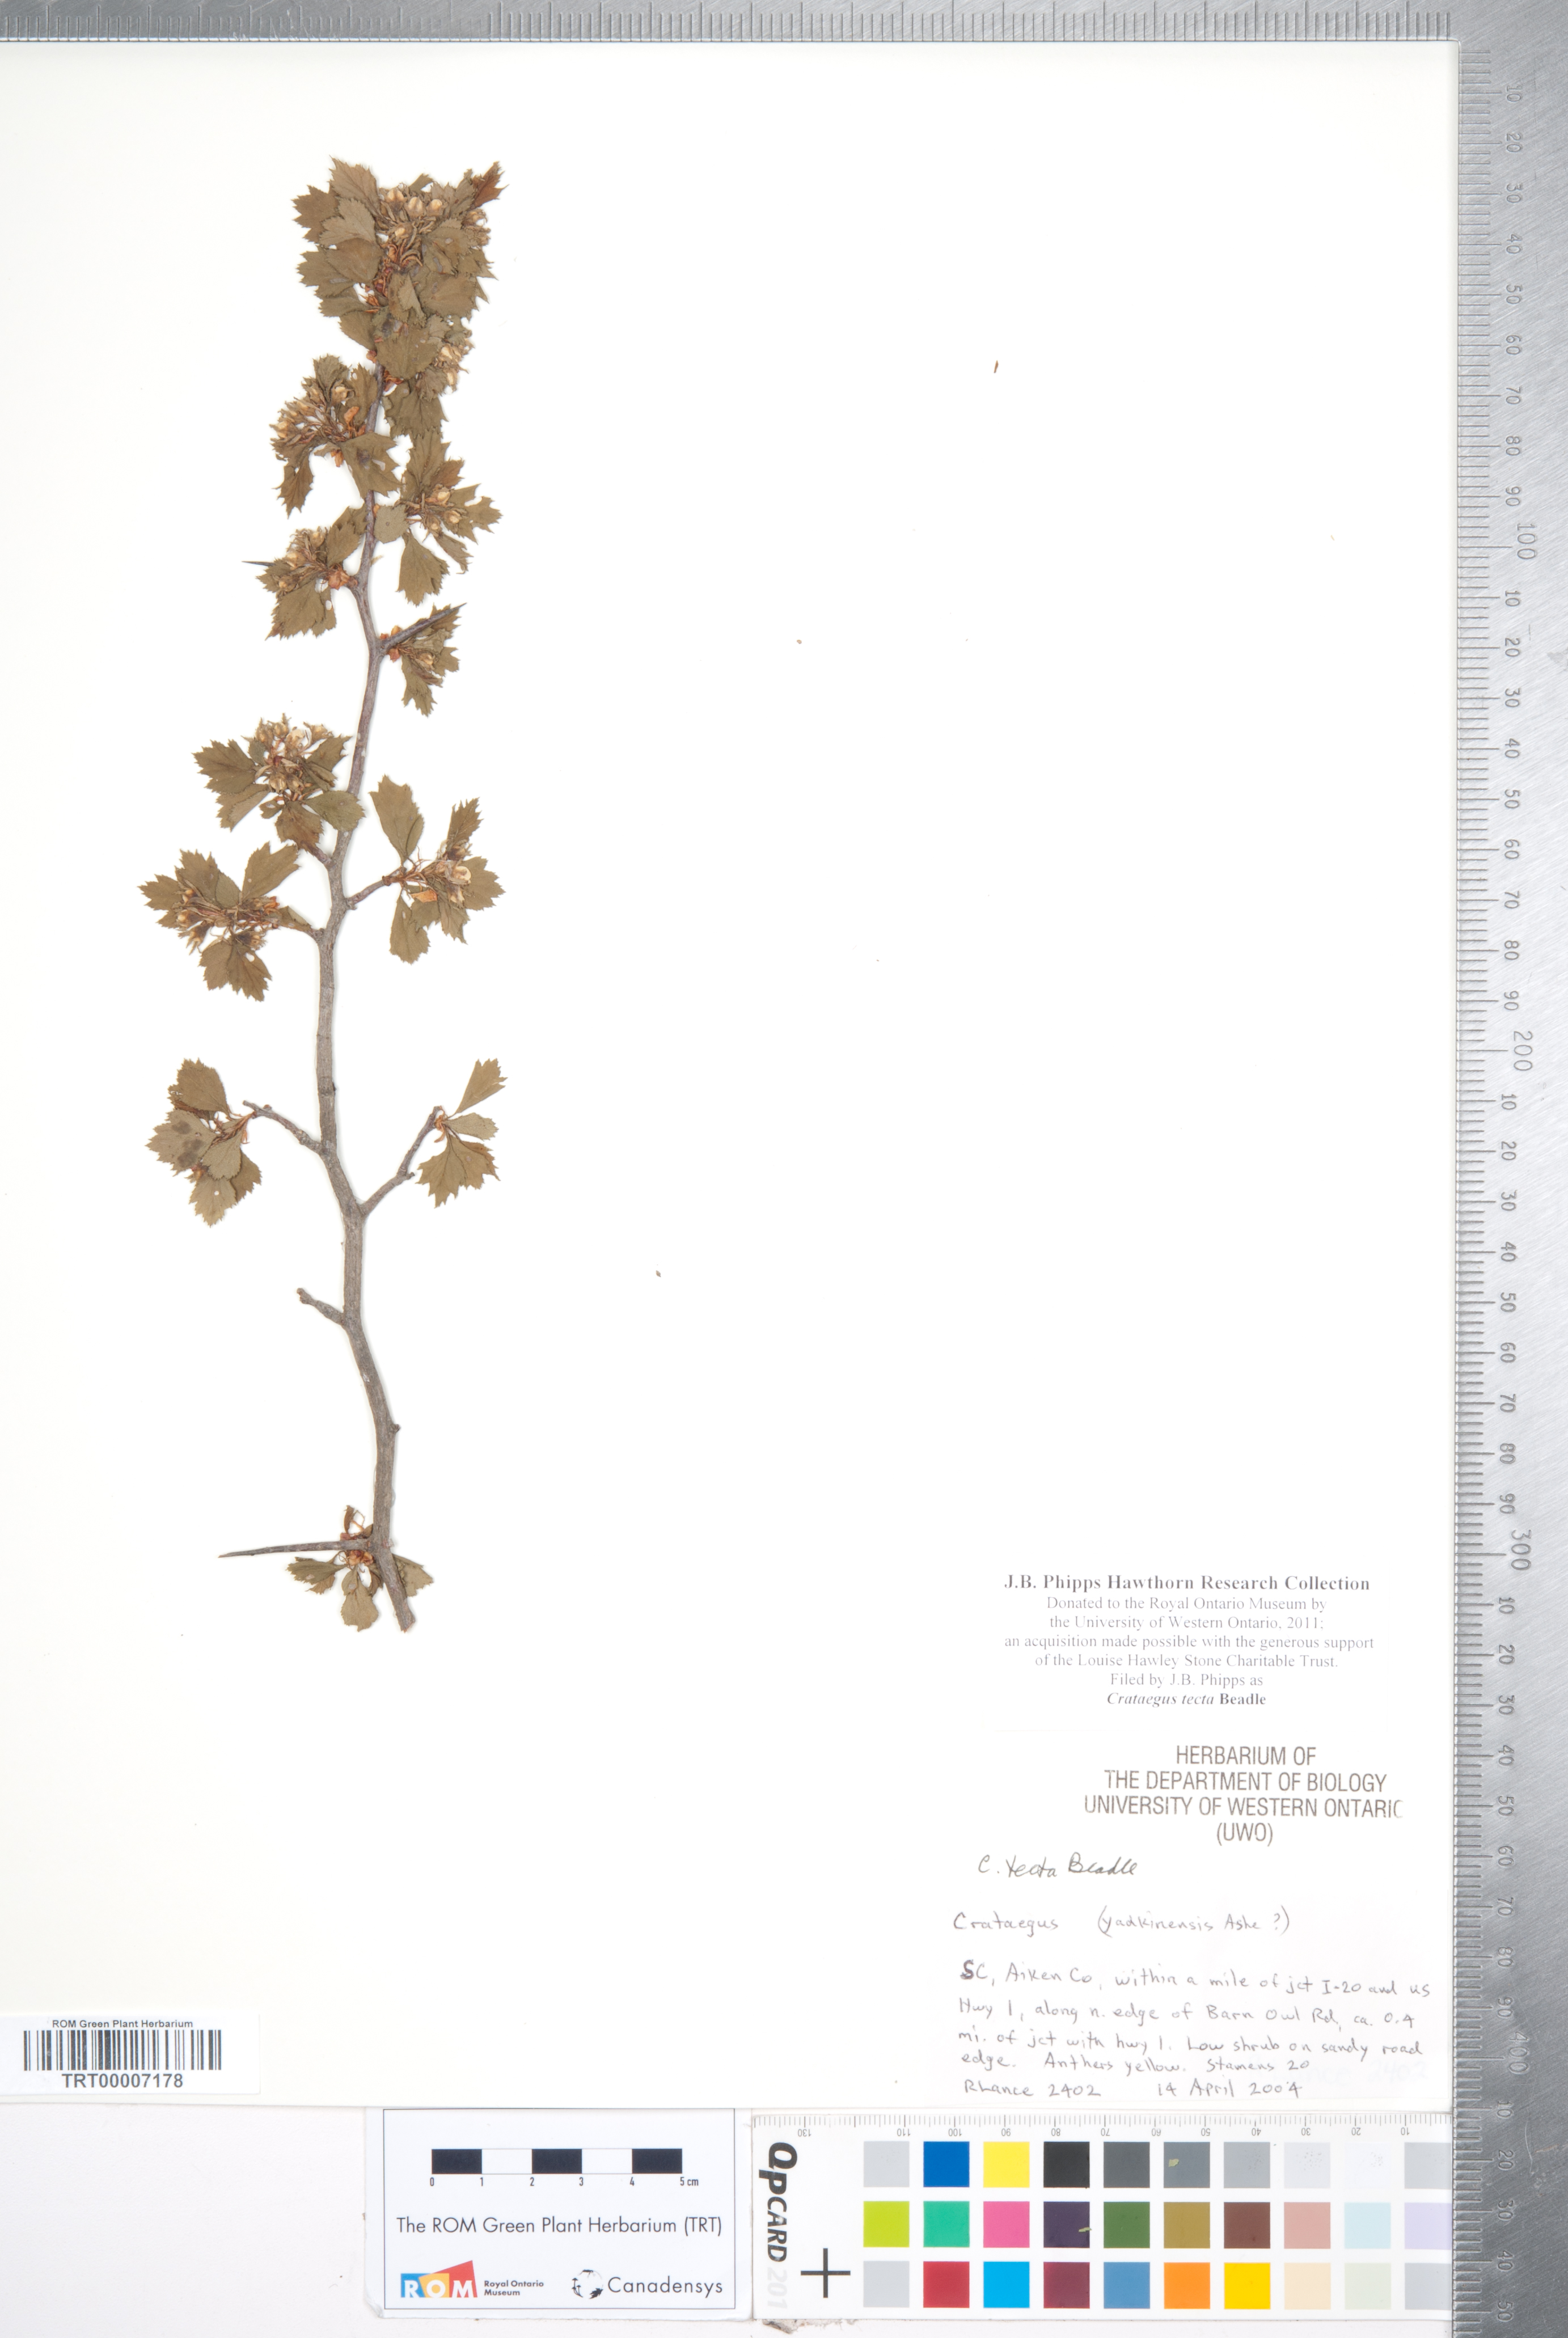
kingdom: Plantae
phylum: Tracheophyta
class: Magnoliopsida
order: Rosales
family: Rosaceae
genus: Crataegus
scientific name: Crataegus pulcherrima
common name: Beautiful hawthorn
